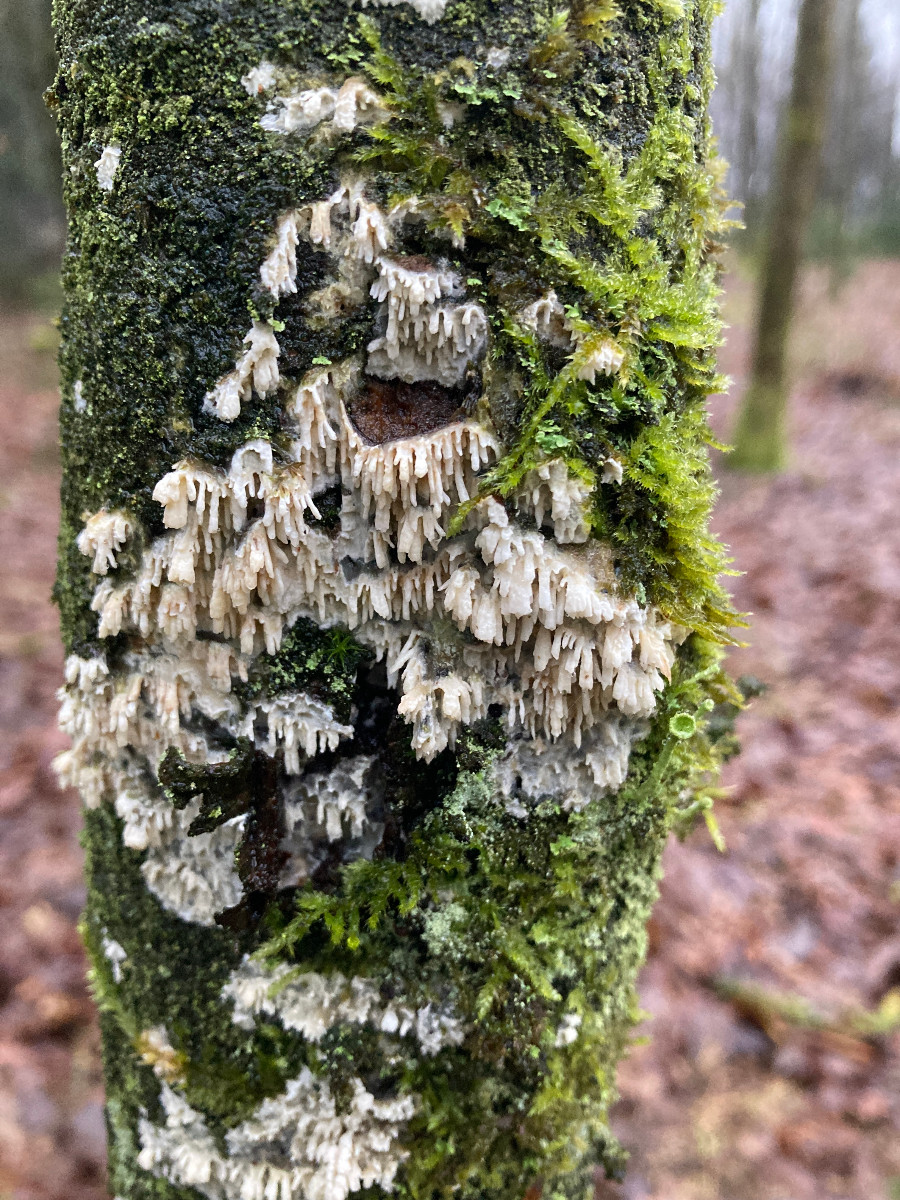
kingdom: Fungi
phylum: Basidiomycota
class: Agaricomycetes
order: Hymenochaetales
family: Schizoporaceae
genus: Xylodon
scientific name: Xylodon radula
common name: grovtandet kalkskind
